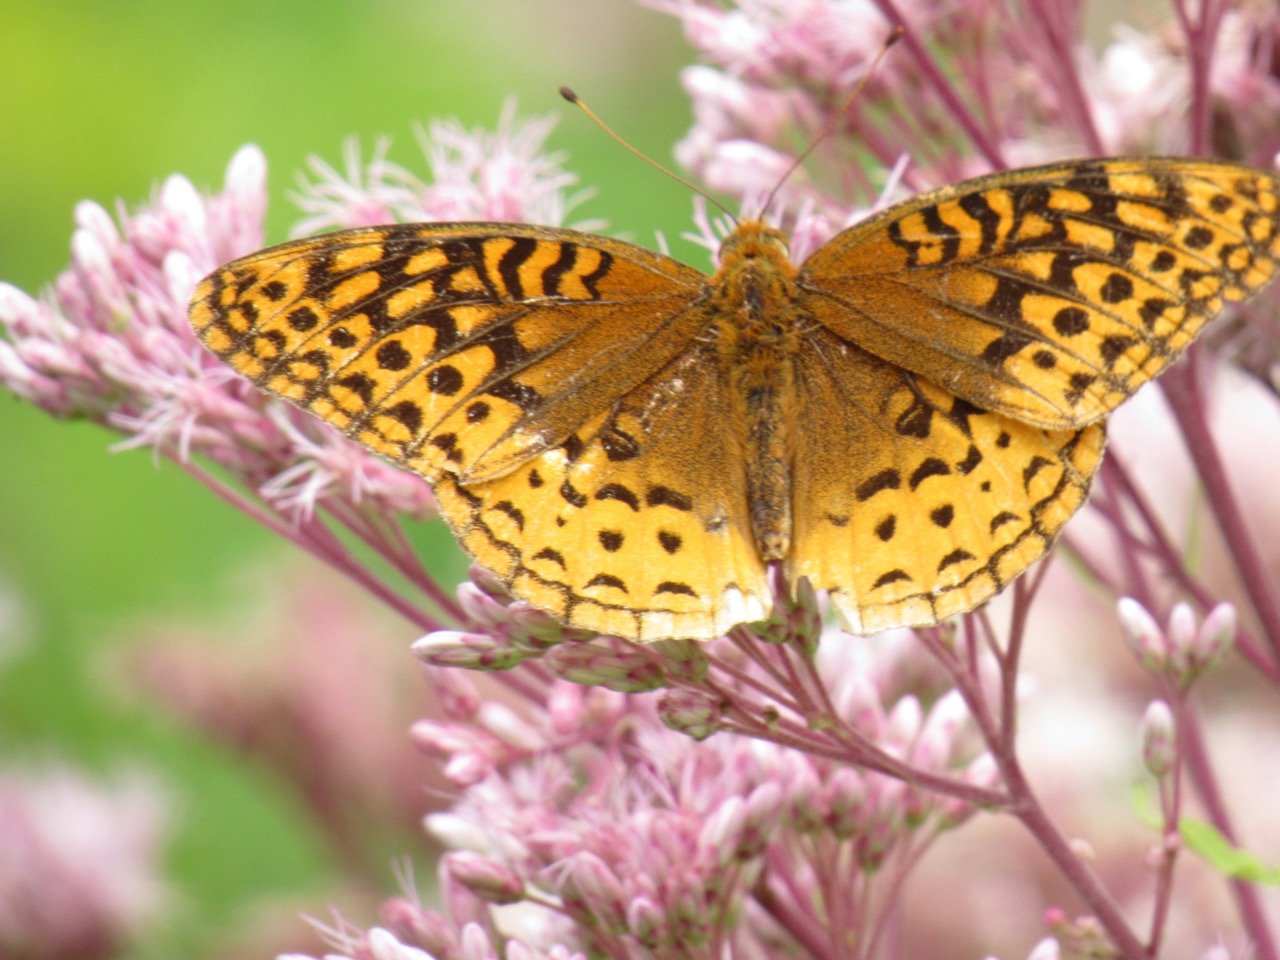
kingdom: Animalia
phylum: Arthropoda
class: Insecta
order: Lepidoptera
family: Nymphalidae
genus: Speyeria
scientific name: Speyeria cybele
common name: Great Spangled Fritillary
